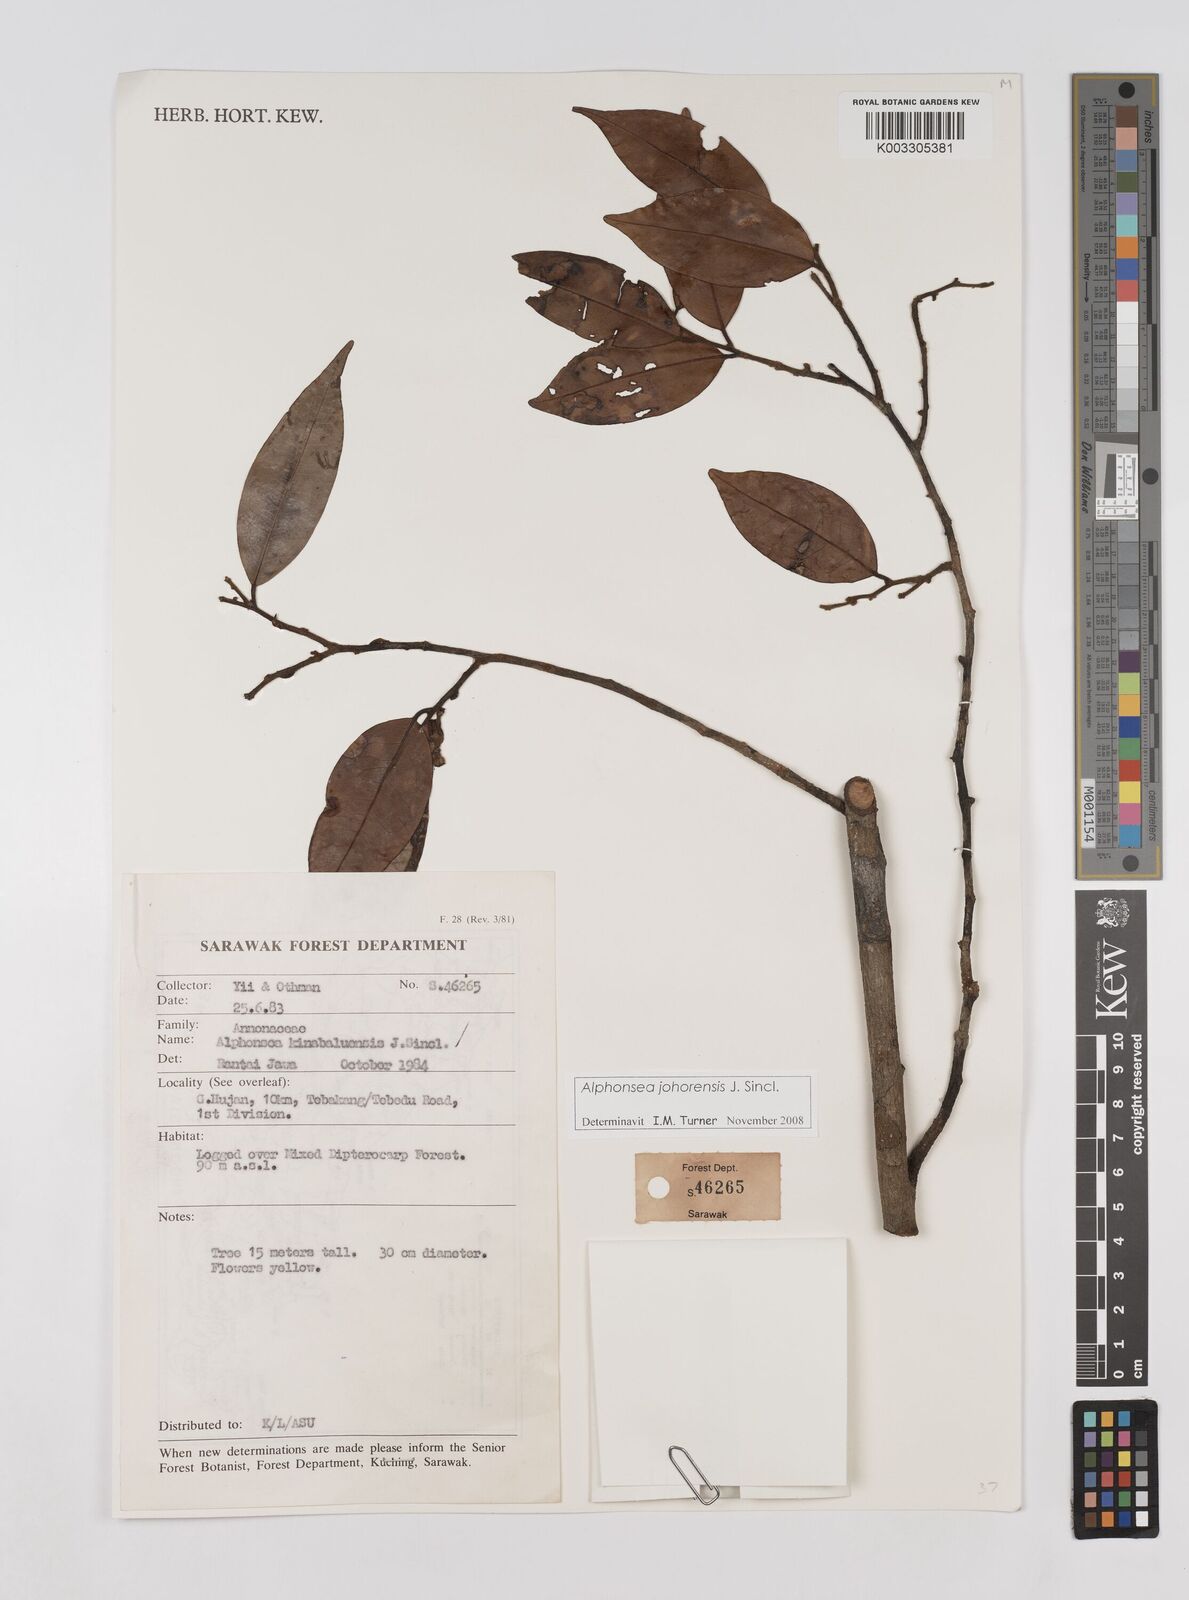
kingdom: Plantae
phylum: Tracheophyta
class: Magnoliopsida
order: Magnoliales
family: Annonaceae
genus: Alphonsea
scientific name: Alphonsea johorensis
